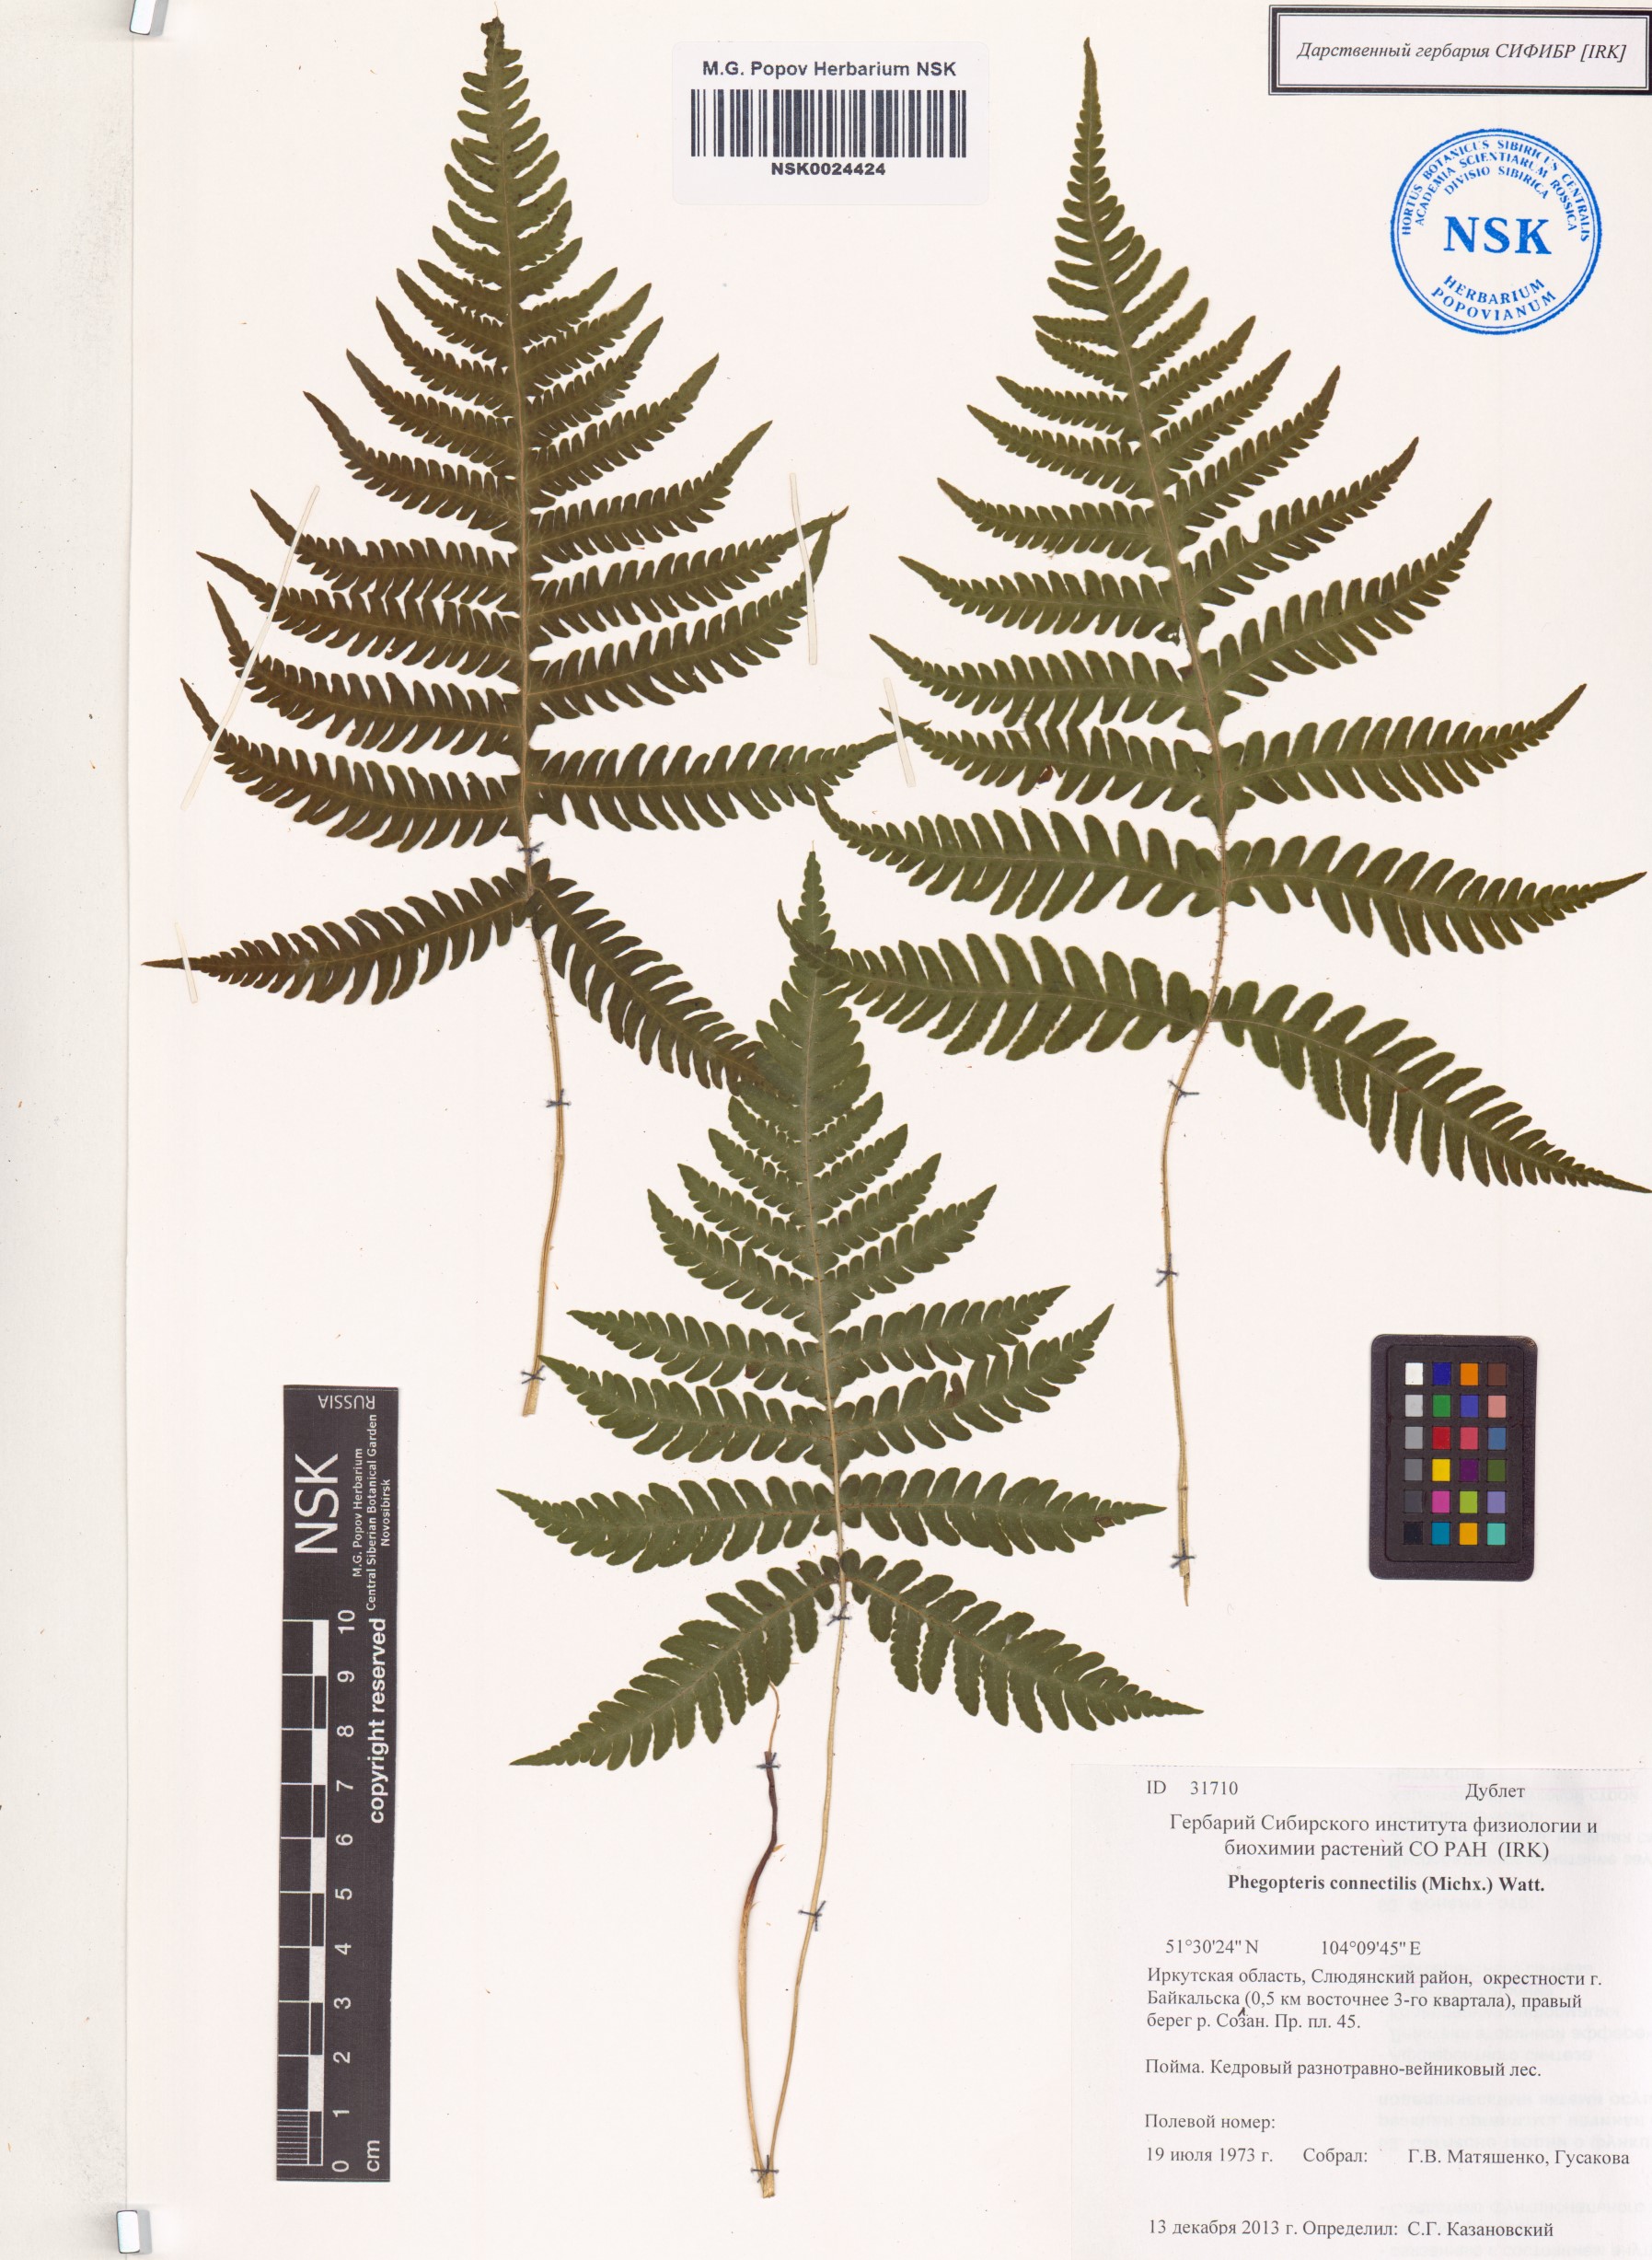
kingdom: Plantae
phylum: Tracheophyta
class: Polypodiopsida
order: Polypodiales
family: Thelypteridaceae
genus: Phegopteris
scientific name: Phegopteris connectilis
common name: Beech fern
